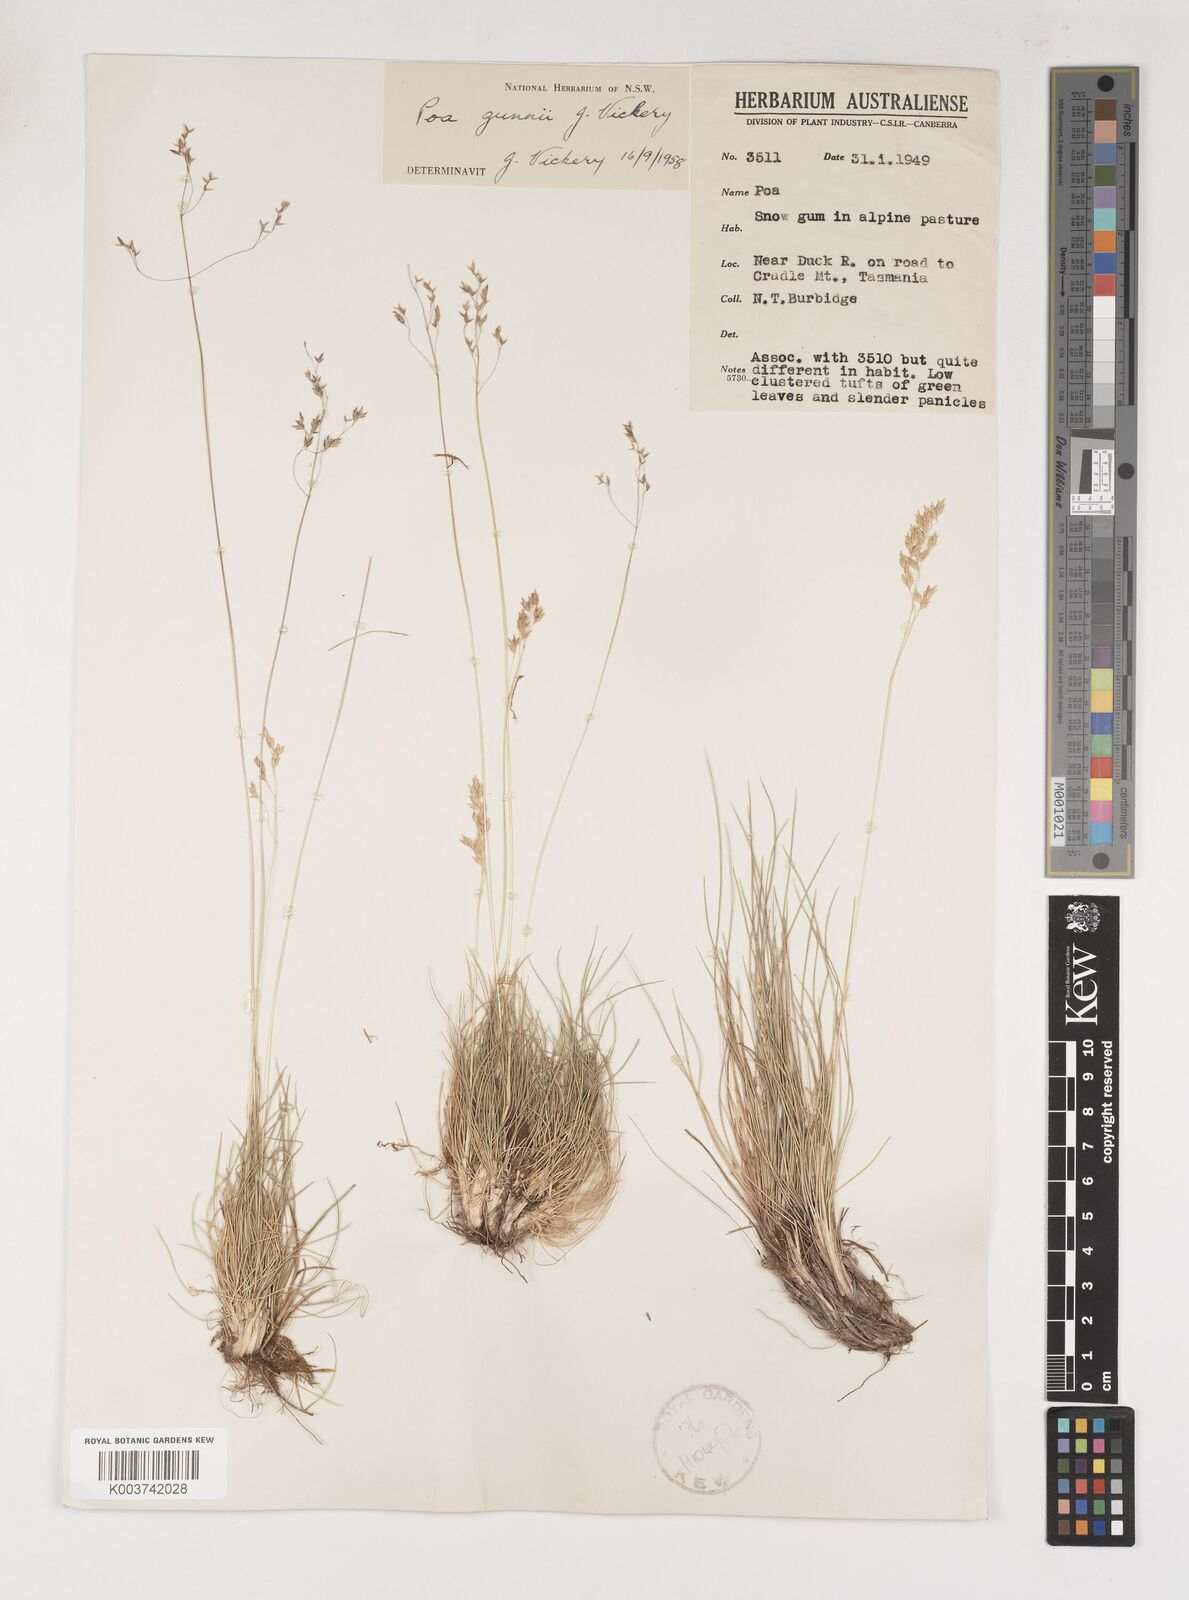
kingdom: Plantae
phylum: Tracheophyta
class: Liliopsida
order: Poales
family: Poaceae
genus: Poa
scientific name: Poa gunnii
